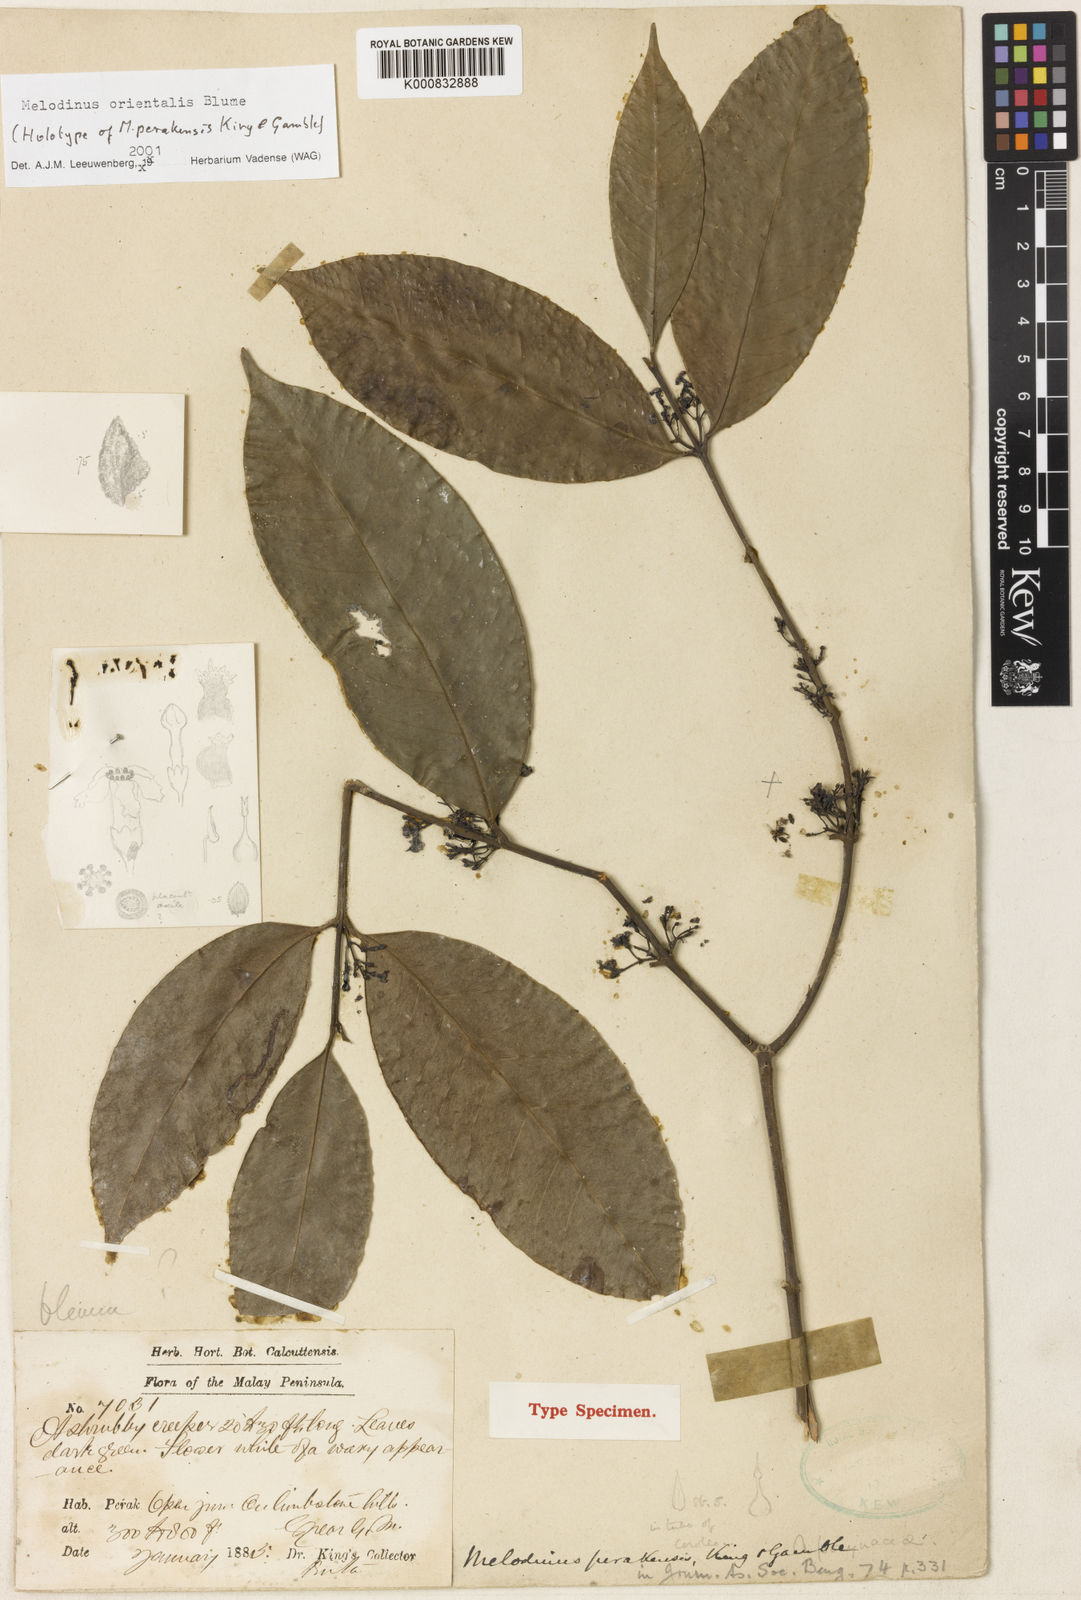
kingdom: Plantae
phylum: Tracheophyta
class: Magnoliopsida
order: Gentianales
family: Apocynaceae
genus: Melodinus
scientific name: Melodinus orientalis
